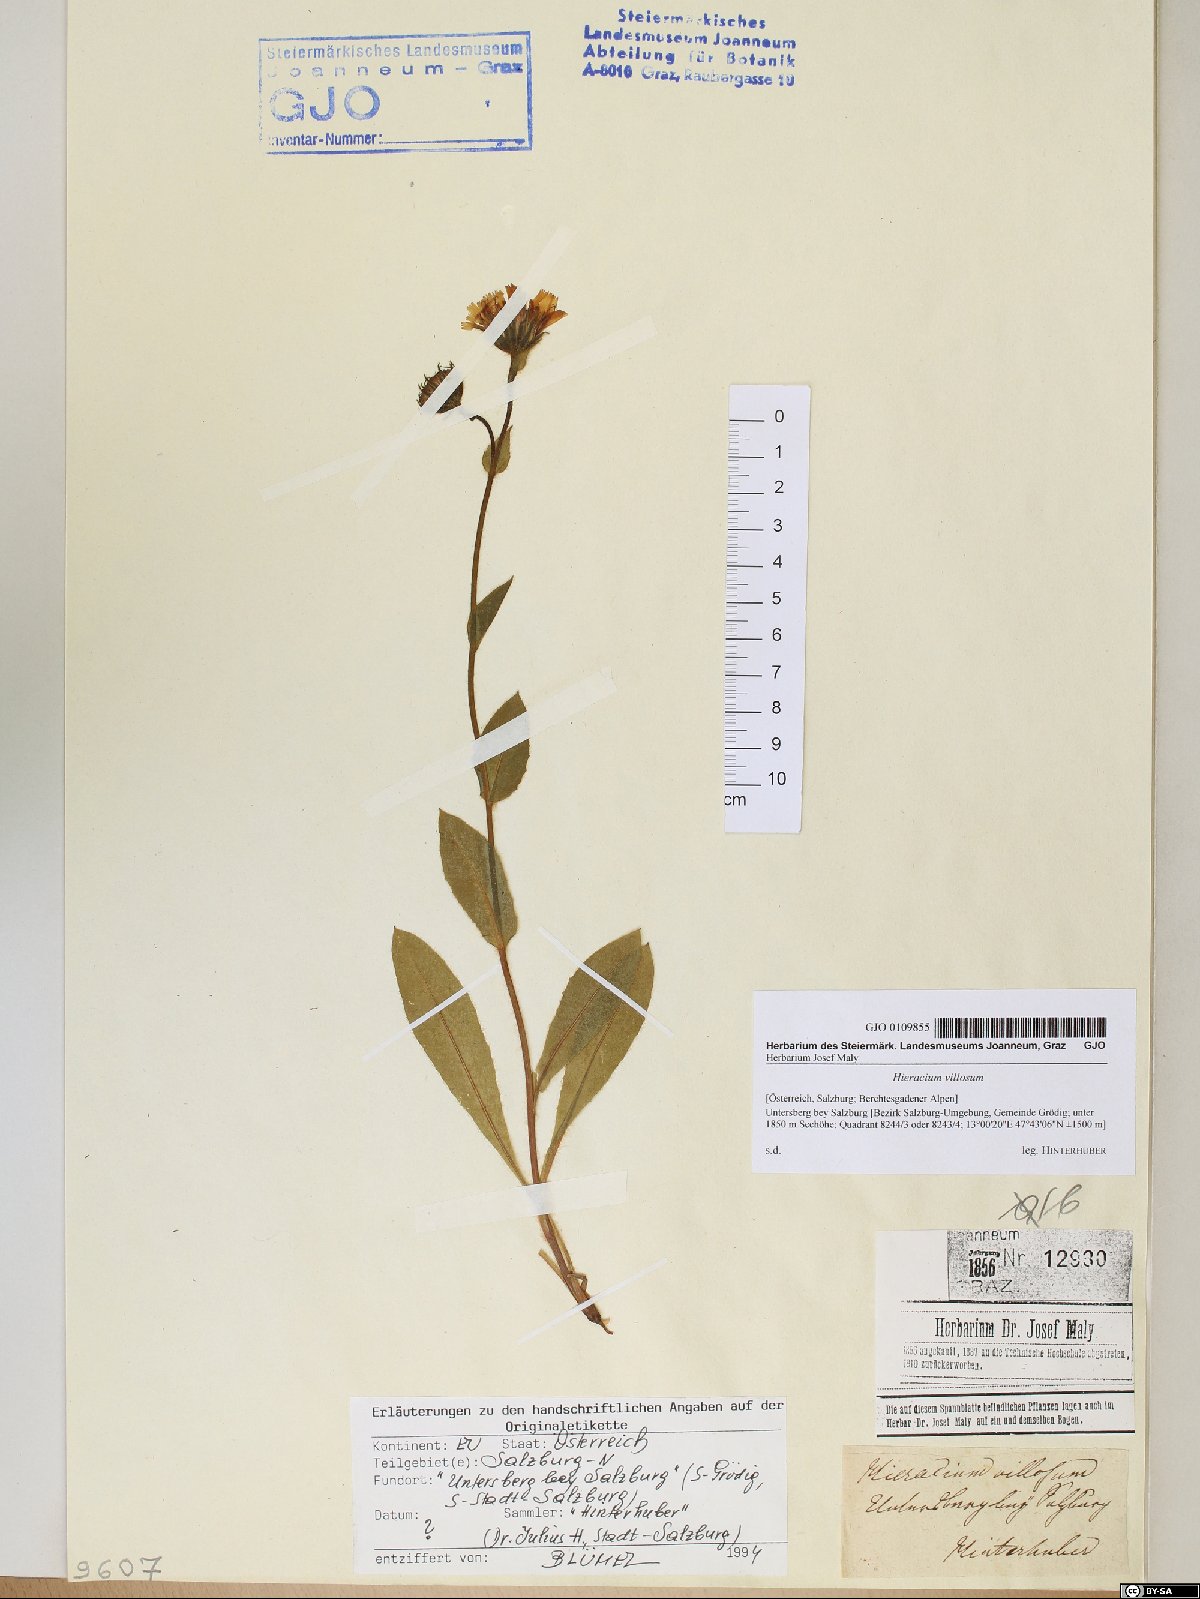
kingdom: Plantae
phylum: Tracheophyta
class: Magnoliopsida
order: Asterales
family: Asteraceae
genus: Hieracium
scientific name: Hieracium villosum
